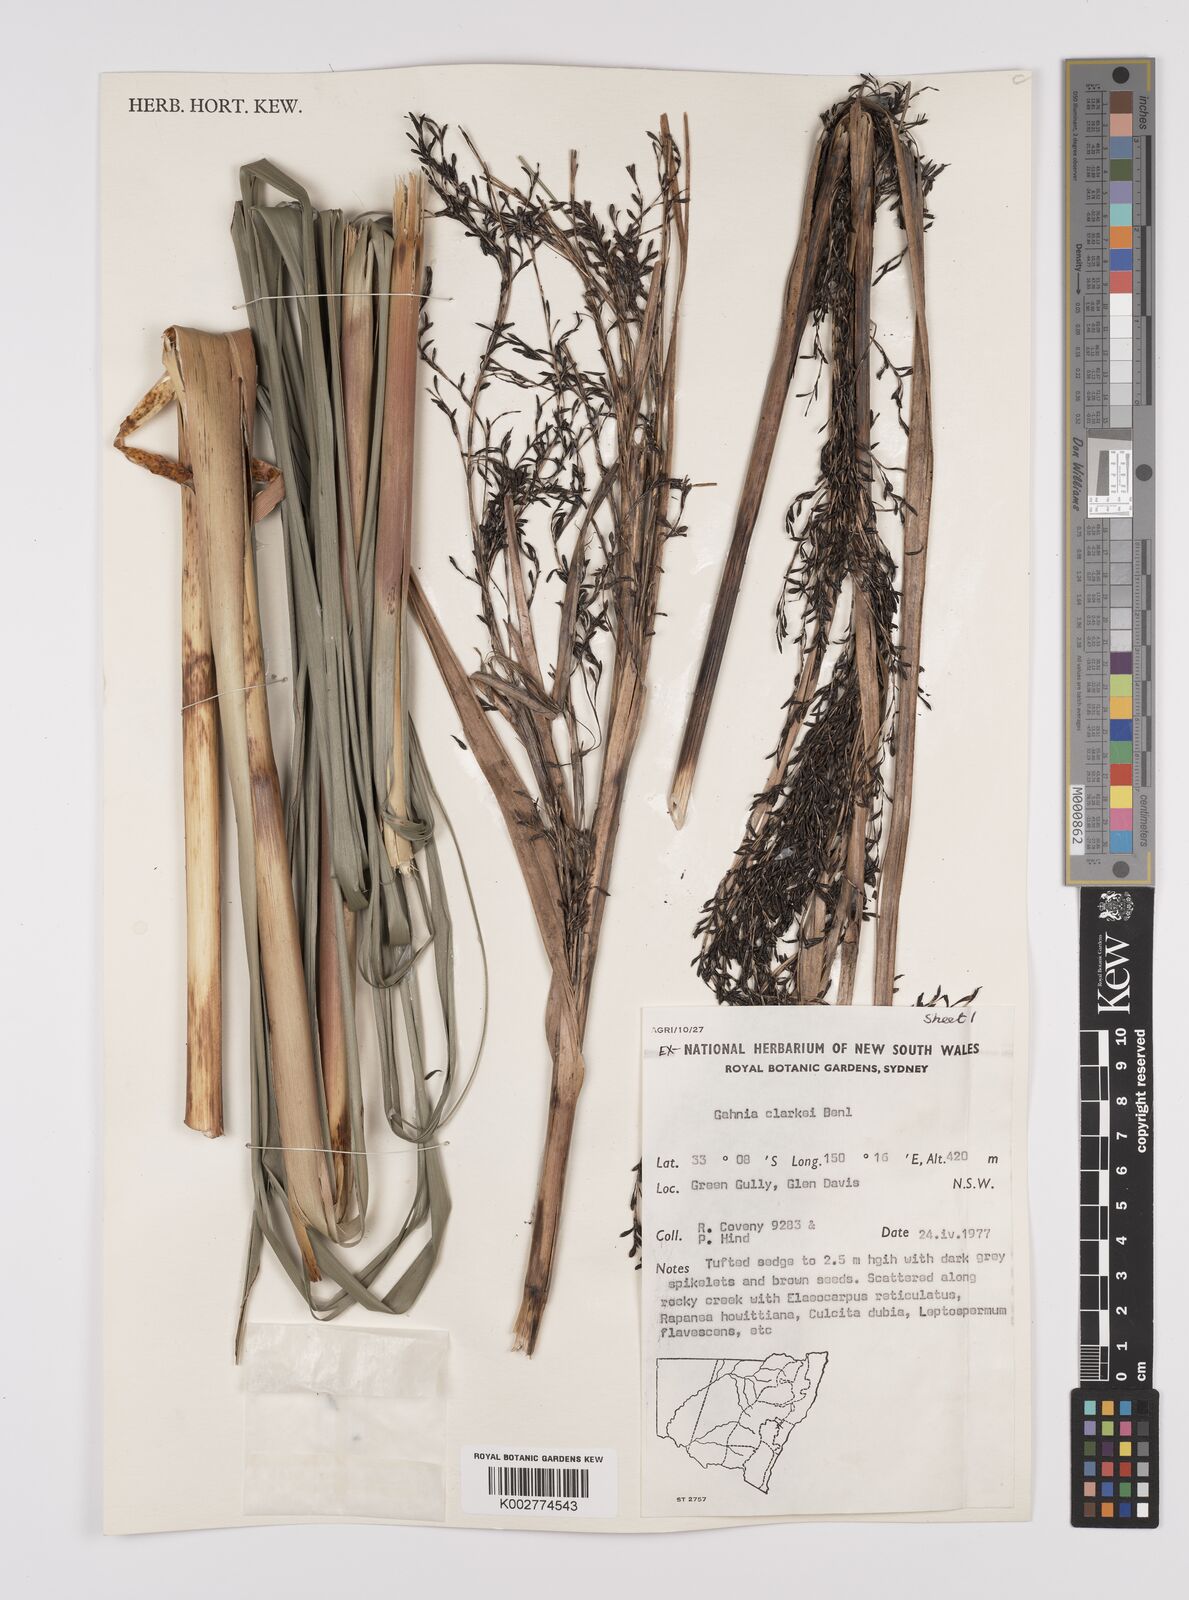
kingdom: Plantae
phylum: Tracheophyta
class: Liliopsida
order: Poales
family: Cyperaceae
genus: Gahnia
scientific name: Gahnia clarkei
